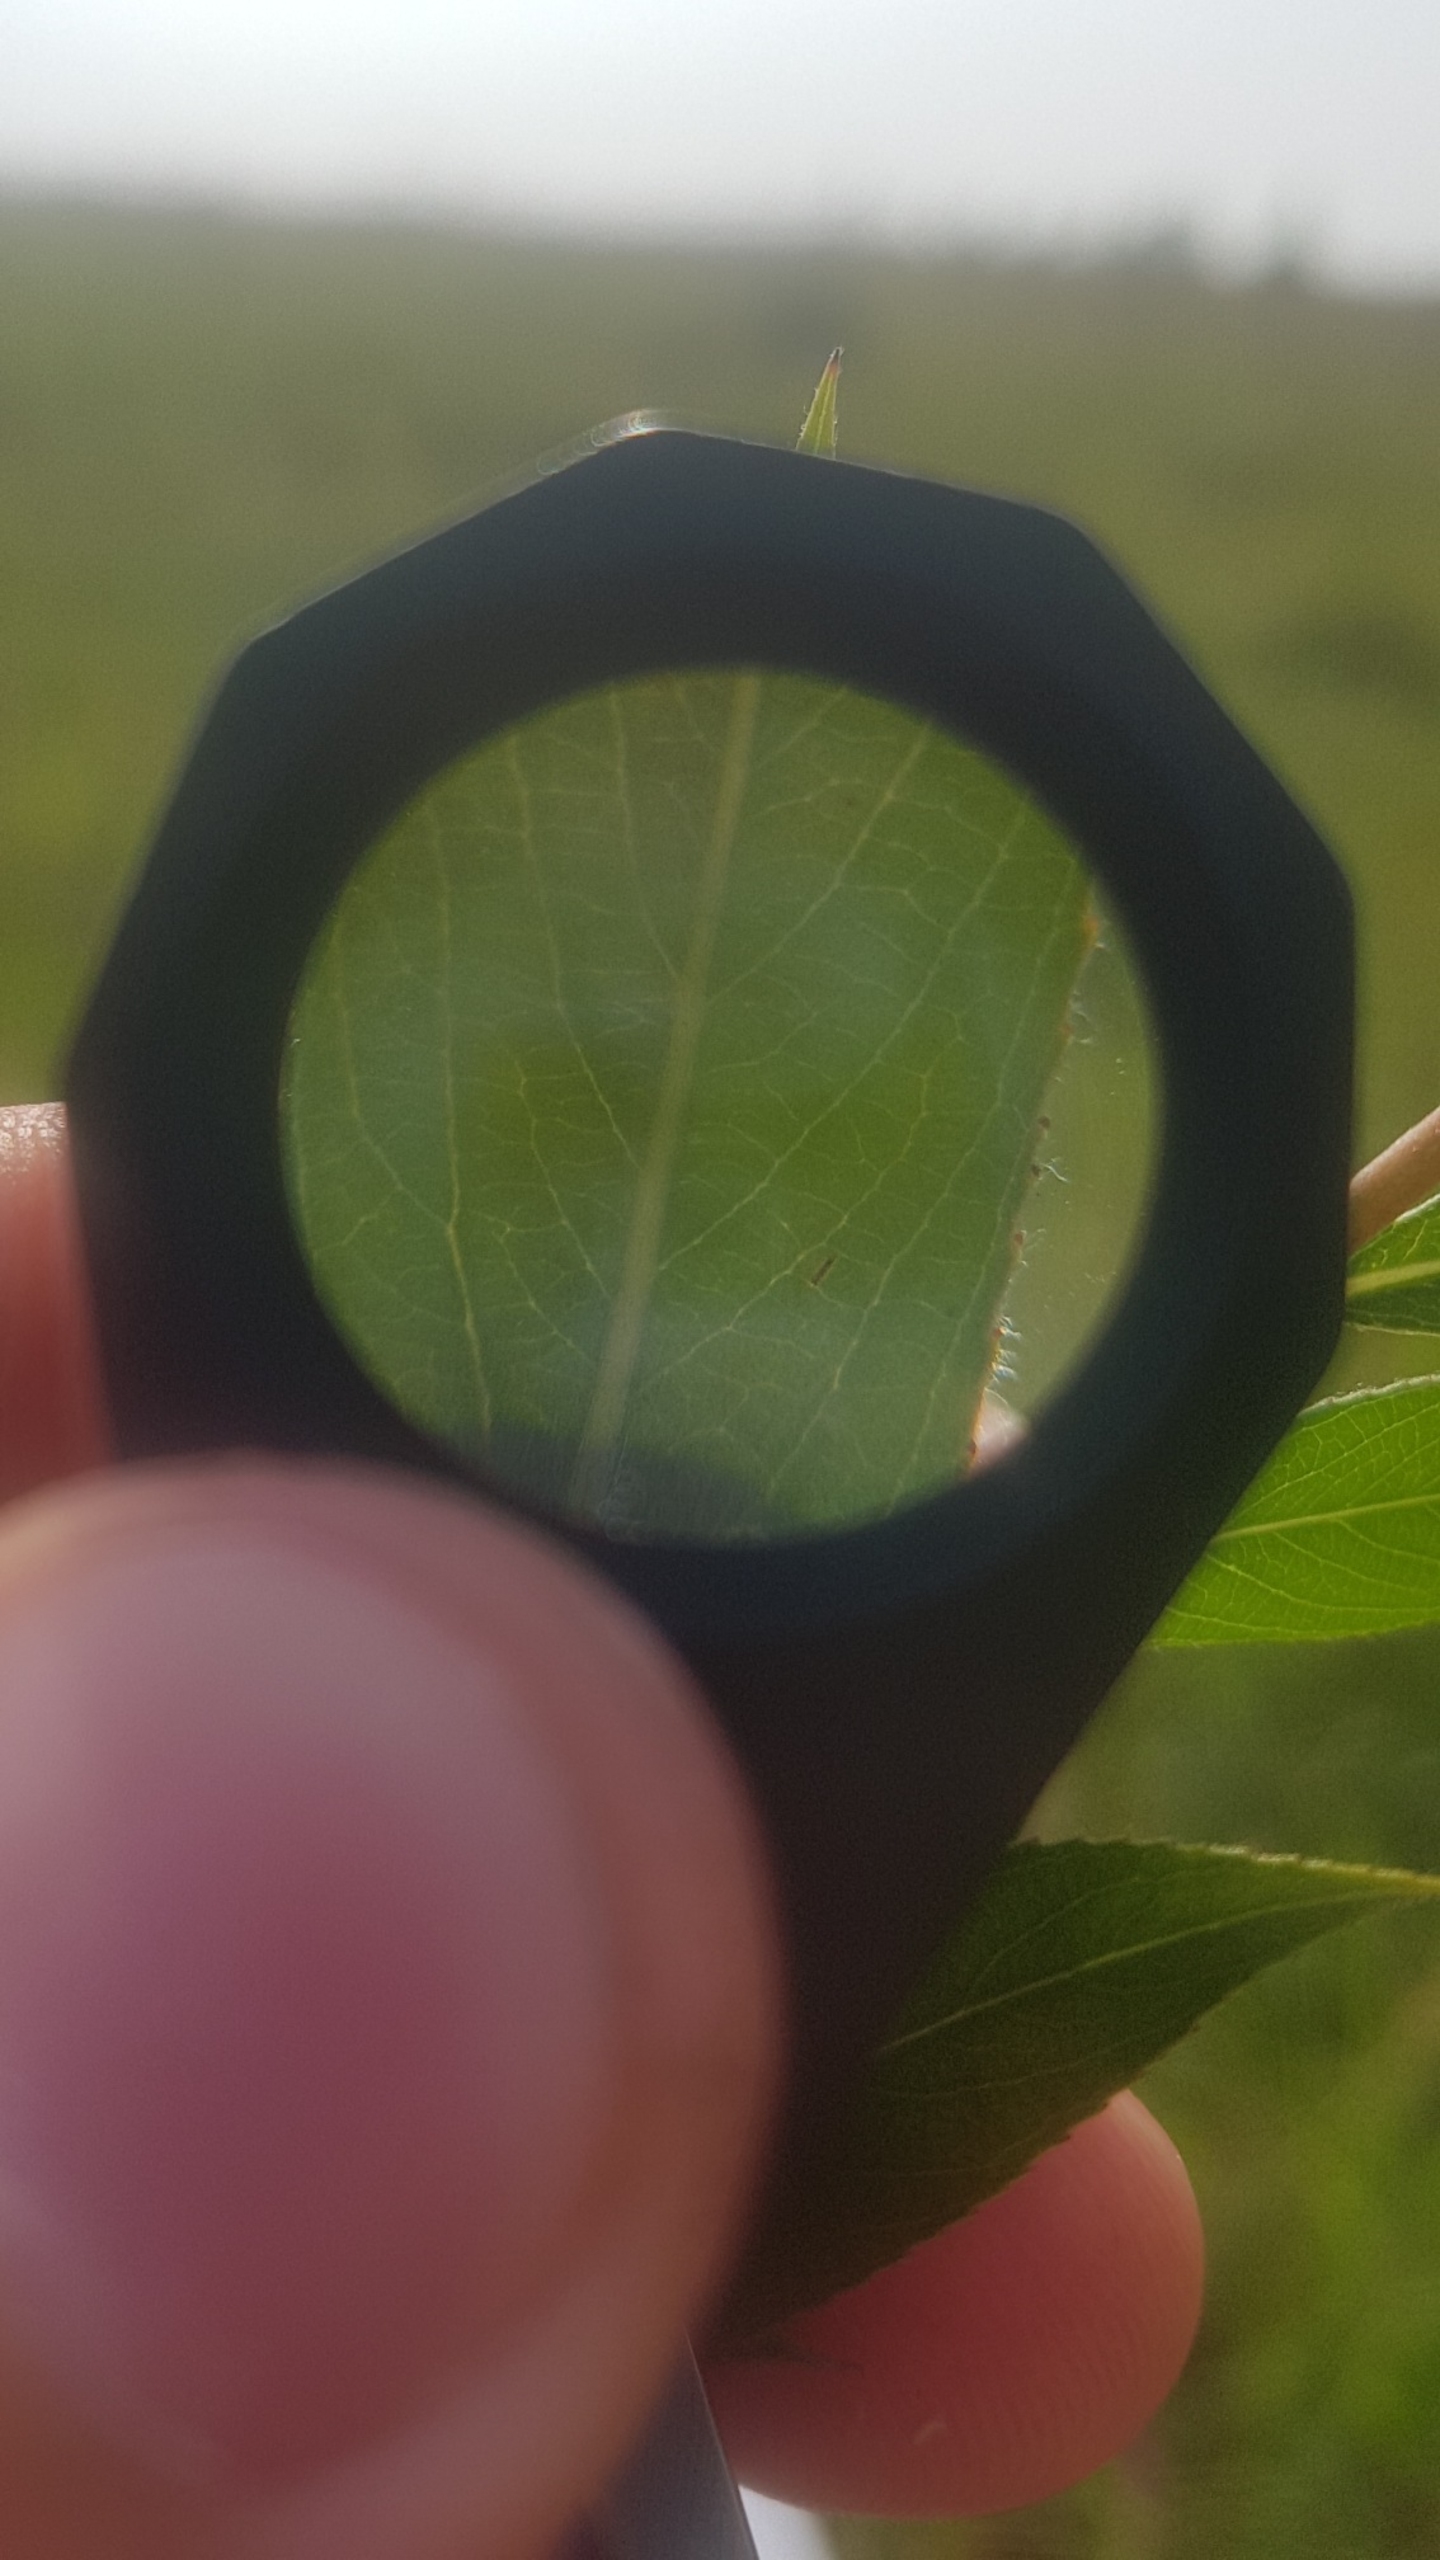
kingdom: Plantae
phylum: Tracheophyta
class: Magnoliopsida
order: Malpighiales
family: Salicaceae
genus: Salix
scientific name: Salix alba
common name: Hvid-pil
